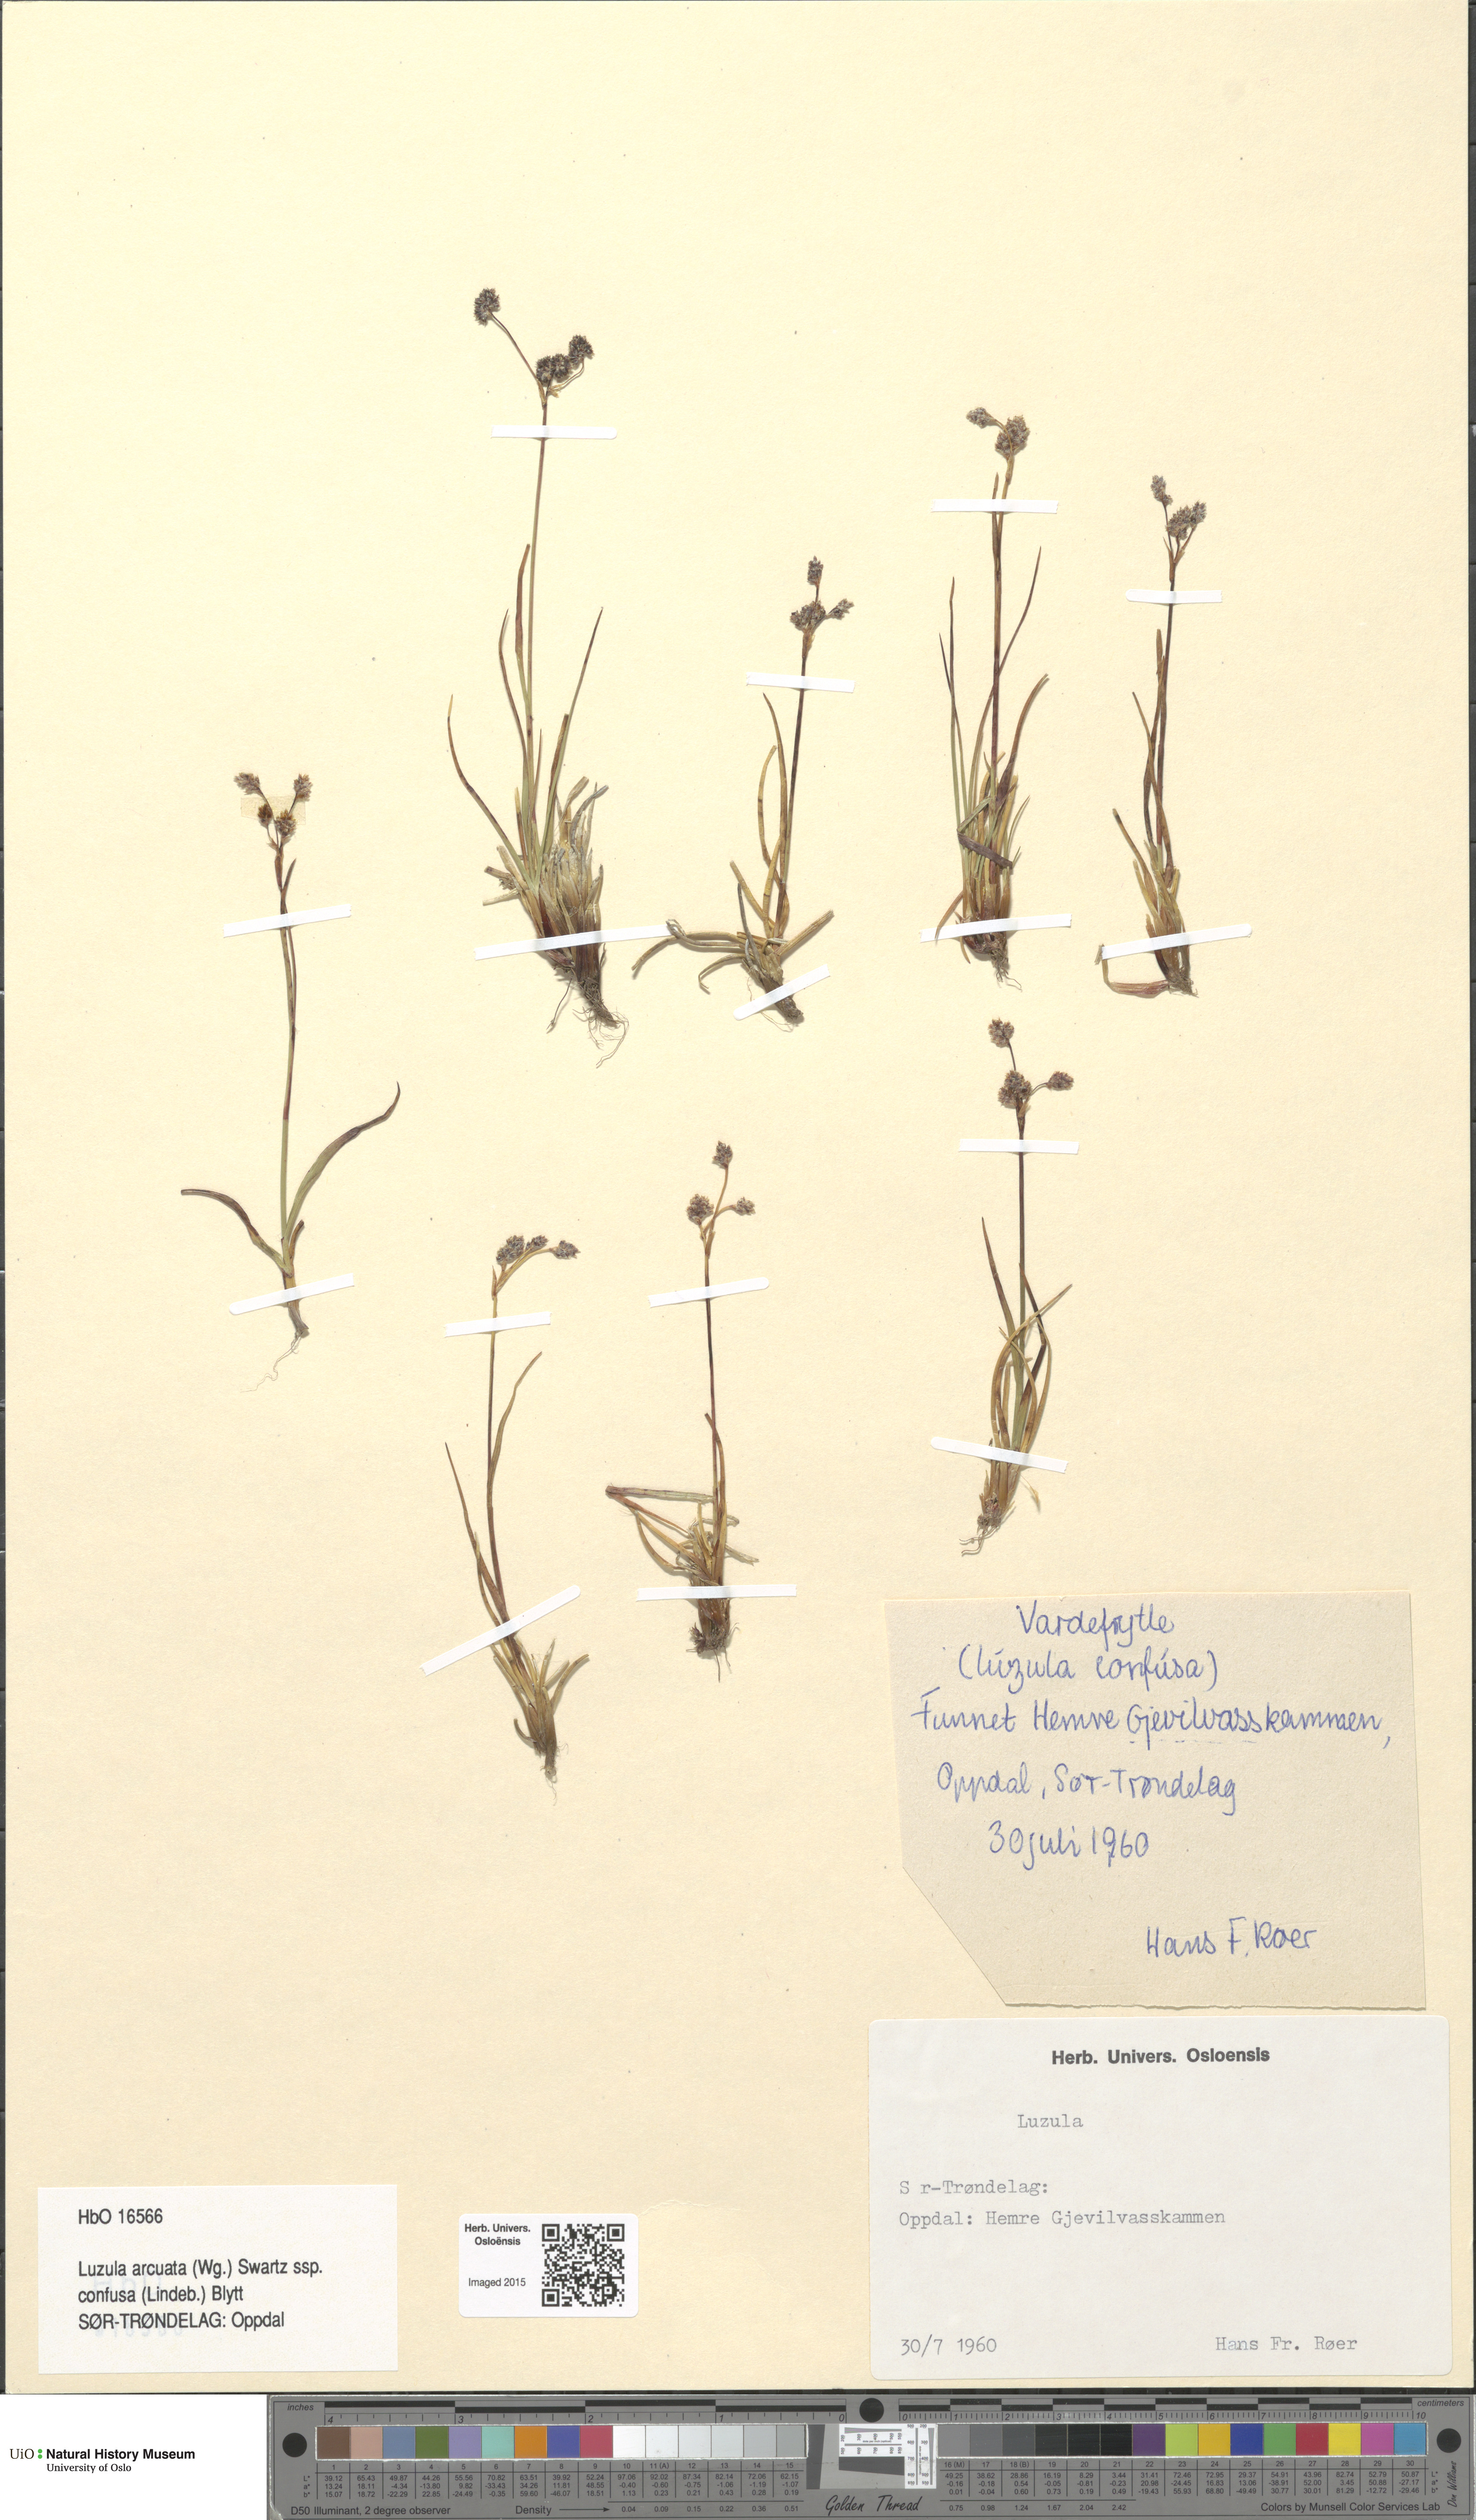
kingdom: Plantae
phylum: Tracheophyta
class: Liliopsida
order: Poales
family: Juncaceae
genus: Luzula
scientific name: Luzula confusa
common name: Northern wood rush
